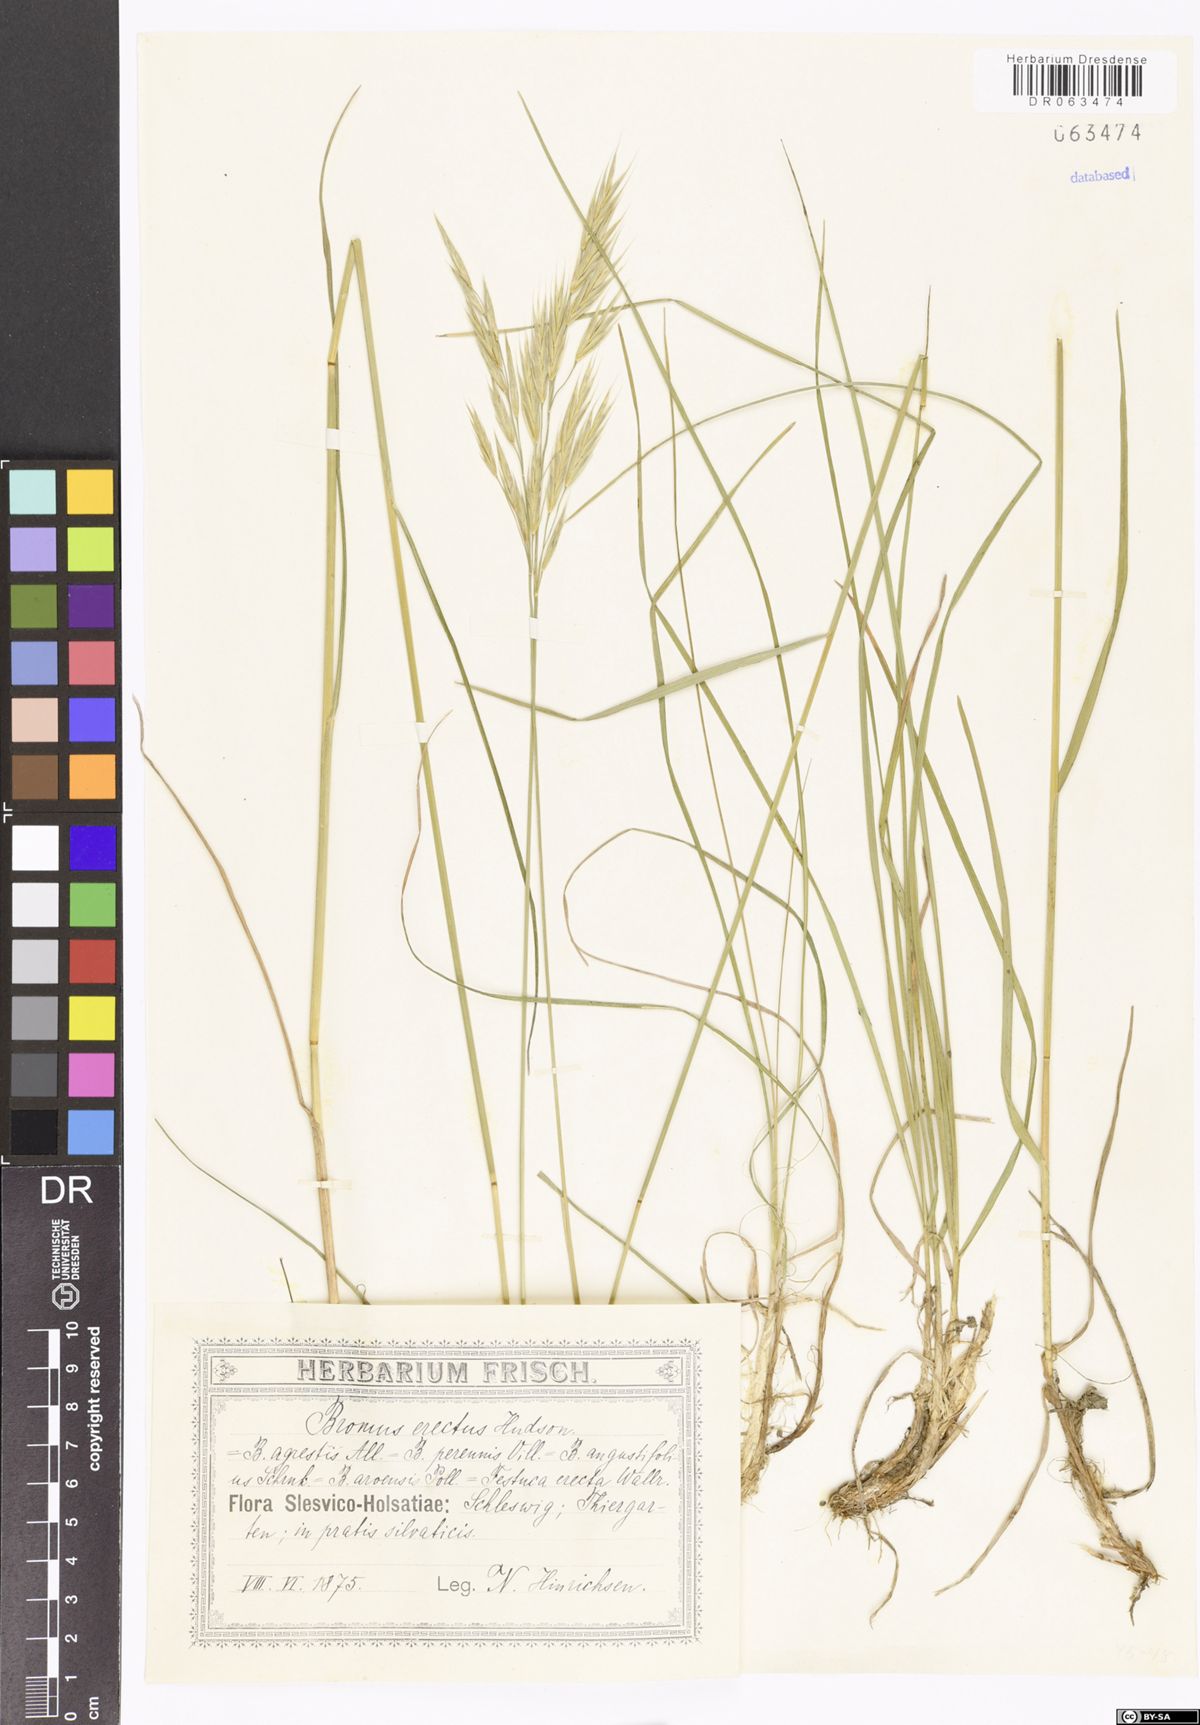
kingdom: Plantae
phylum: Tracheophyta
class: Liliopsida
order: Poales
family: Poaceae
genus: Bromus
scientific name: Bromus erectus
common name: Erect brome
